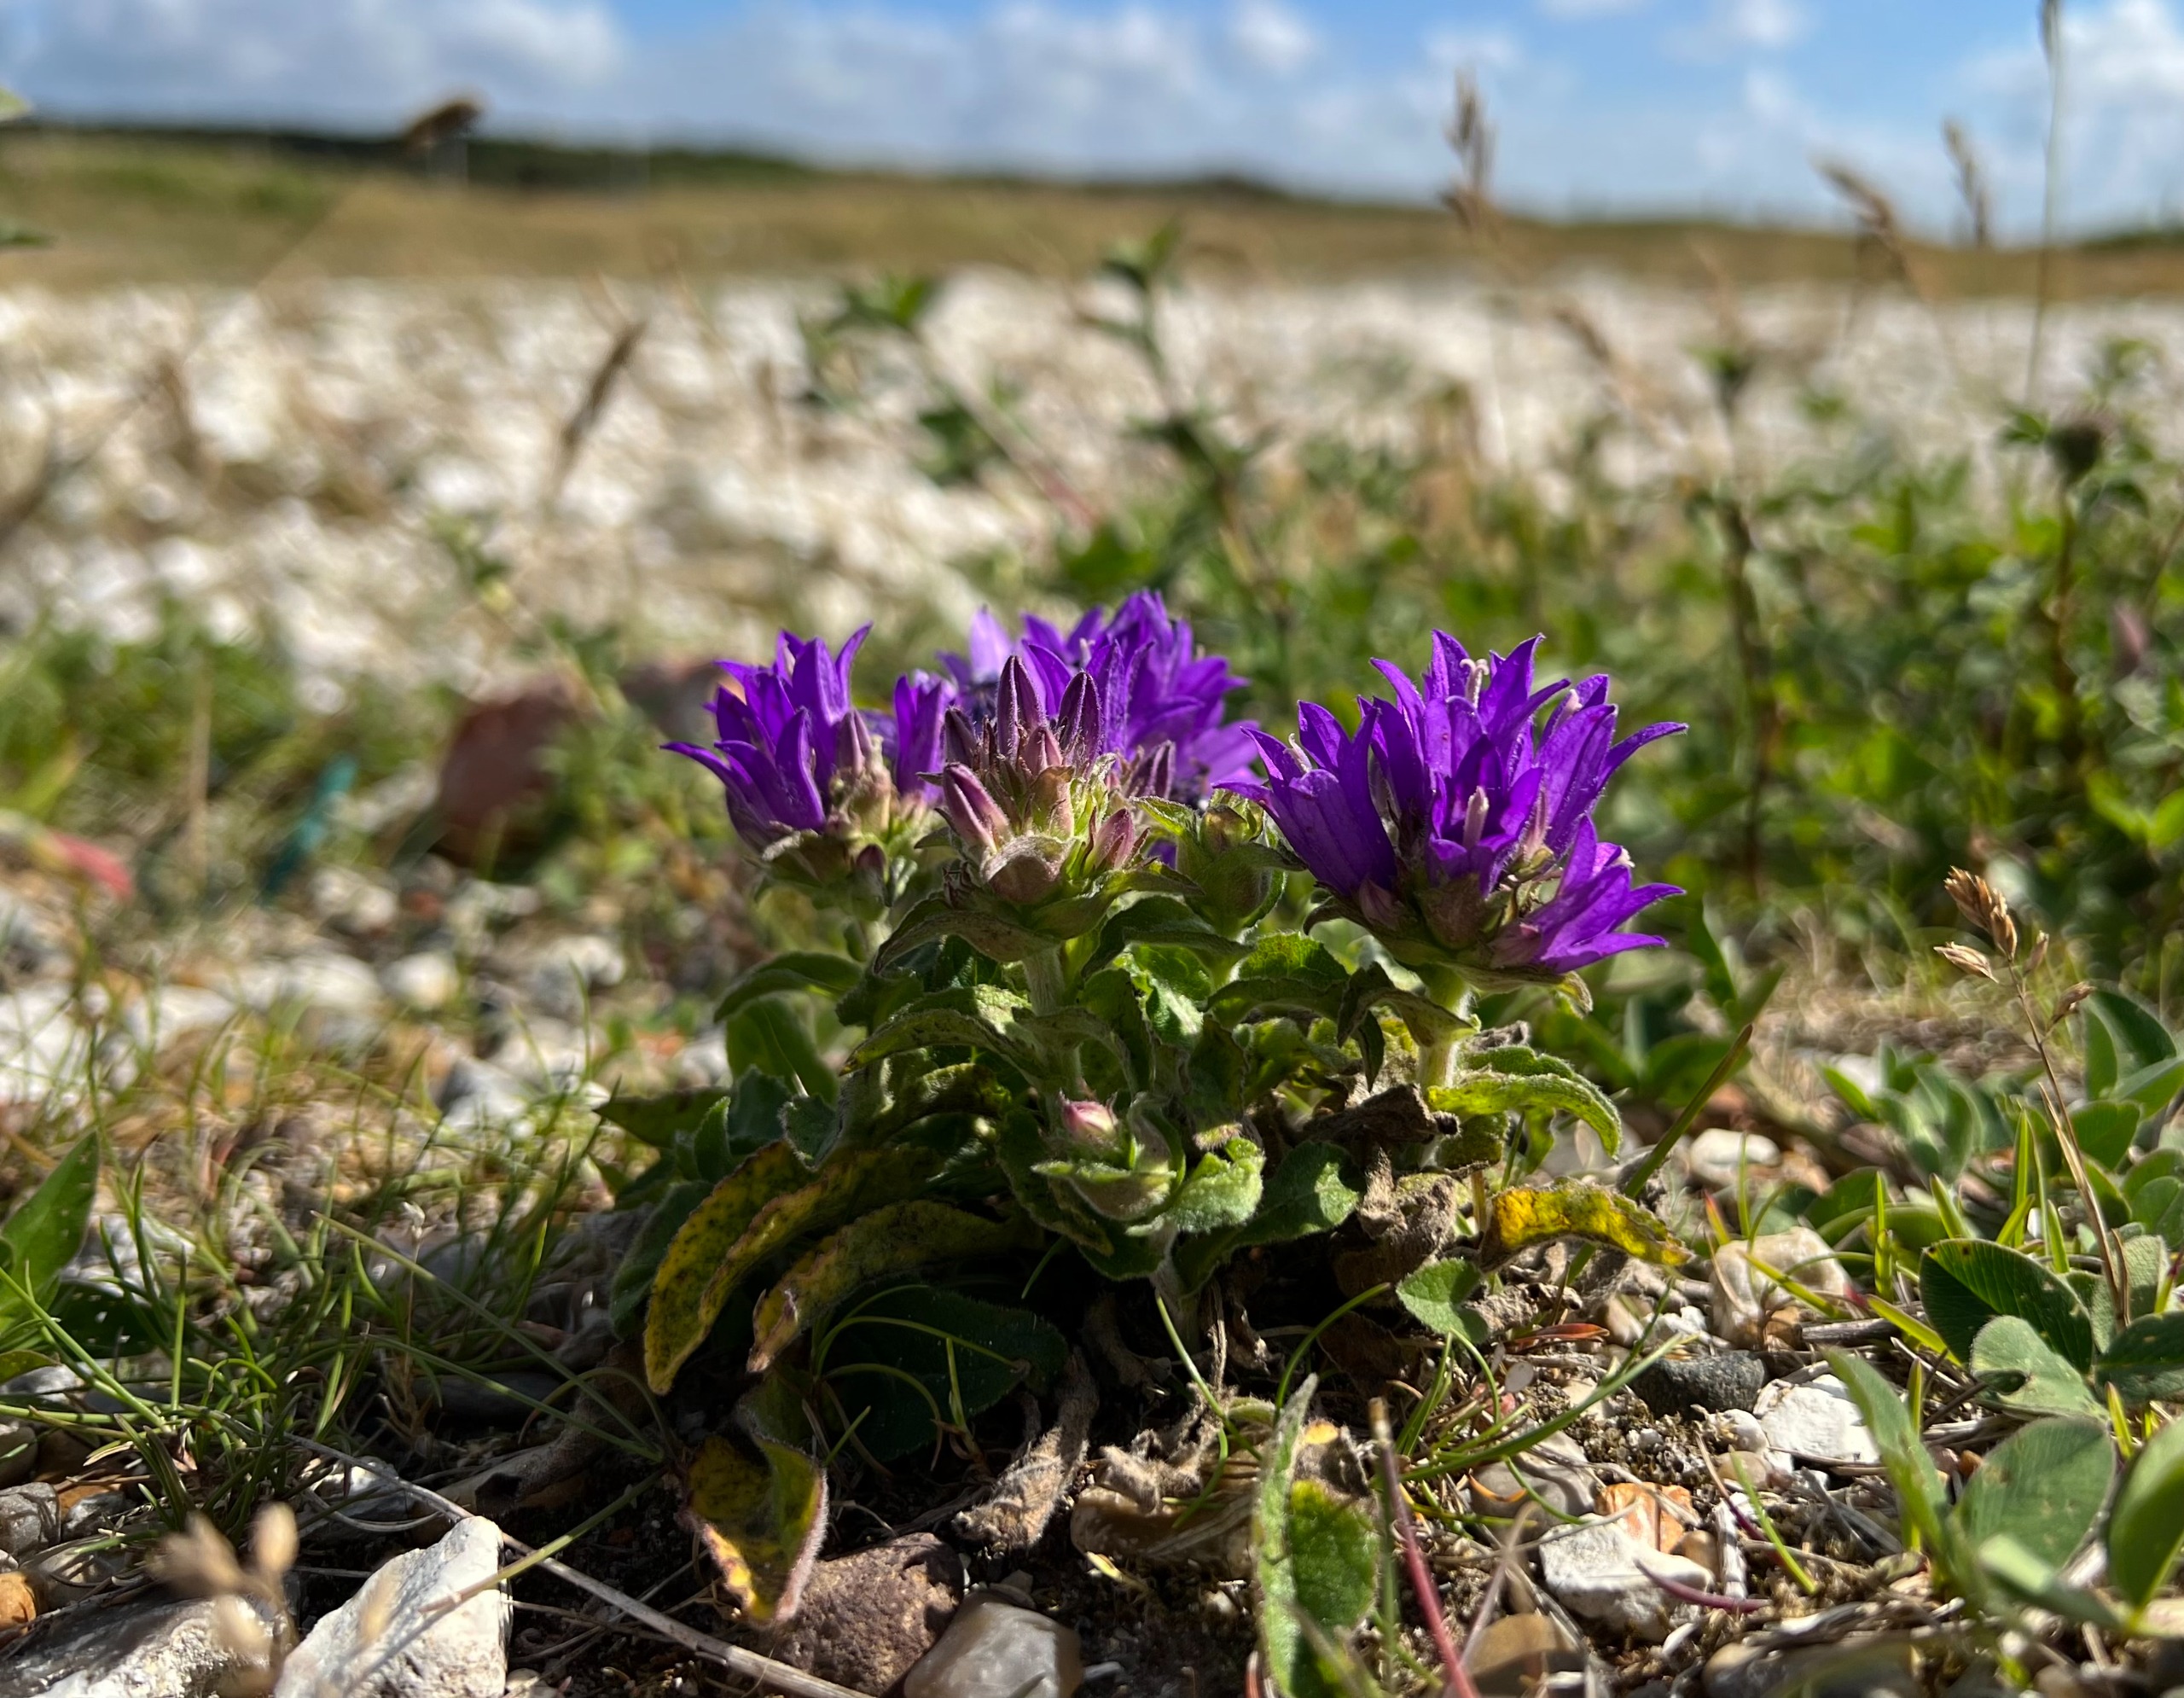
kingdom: Plantae
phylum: Tracheophyta
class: Magnoliopsida
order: Asterales
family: Campanulaceae
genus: Campanula
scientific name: Campanula glomerata
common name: Filtet klokke
